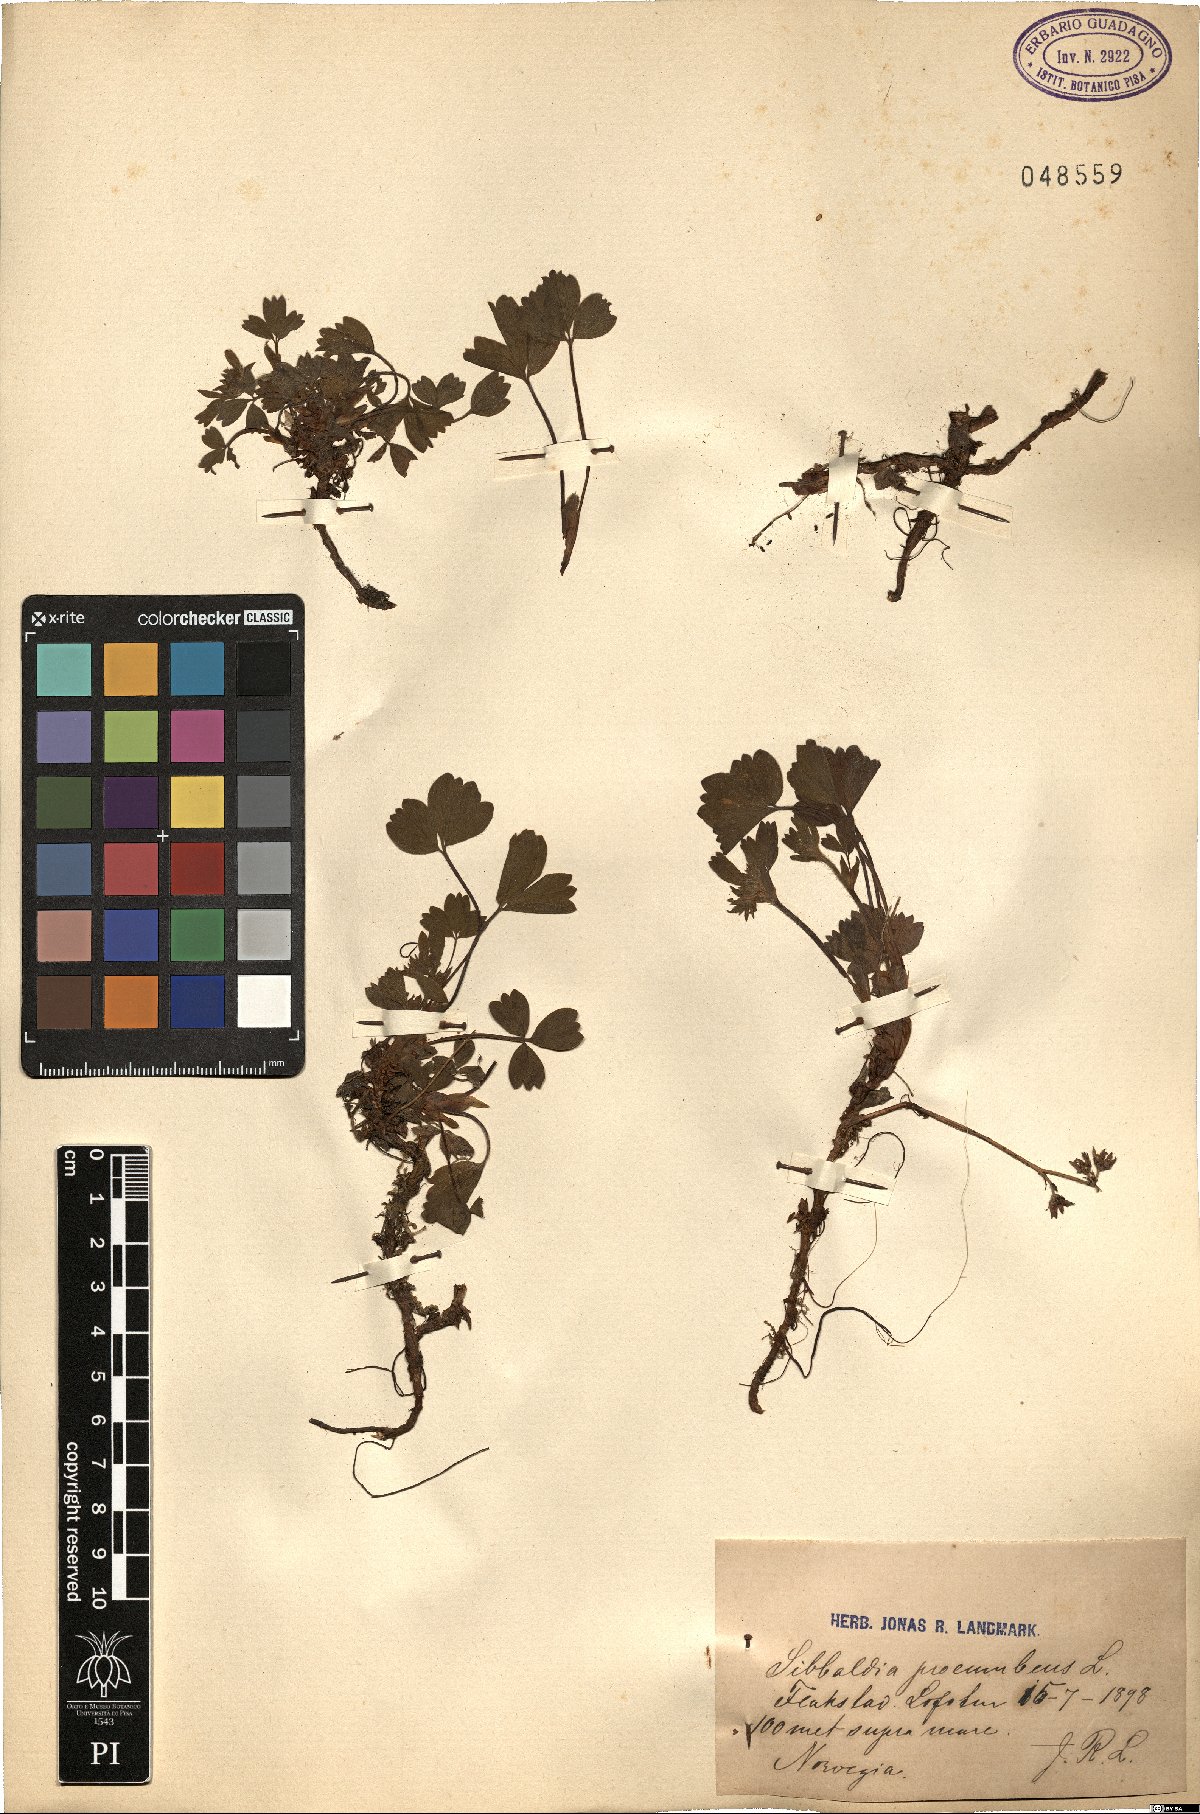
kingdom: Plantae
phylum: Tracheophyta
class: Magnoliopsida
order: Rosales
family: Rosaceae
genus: Sibbaldia
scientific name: Sibbaldia procumbens
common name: Creeping sibbaldia
